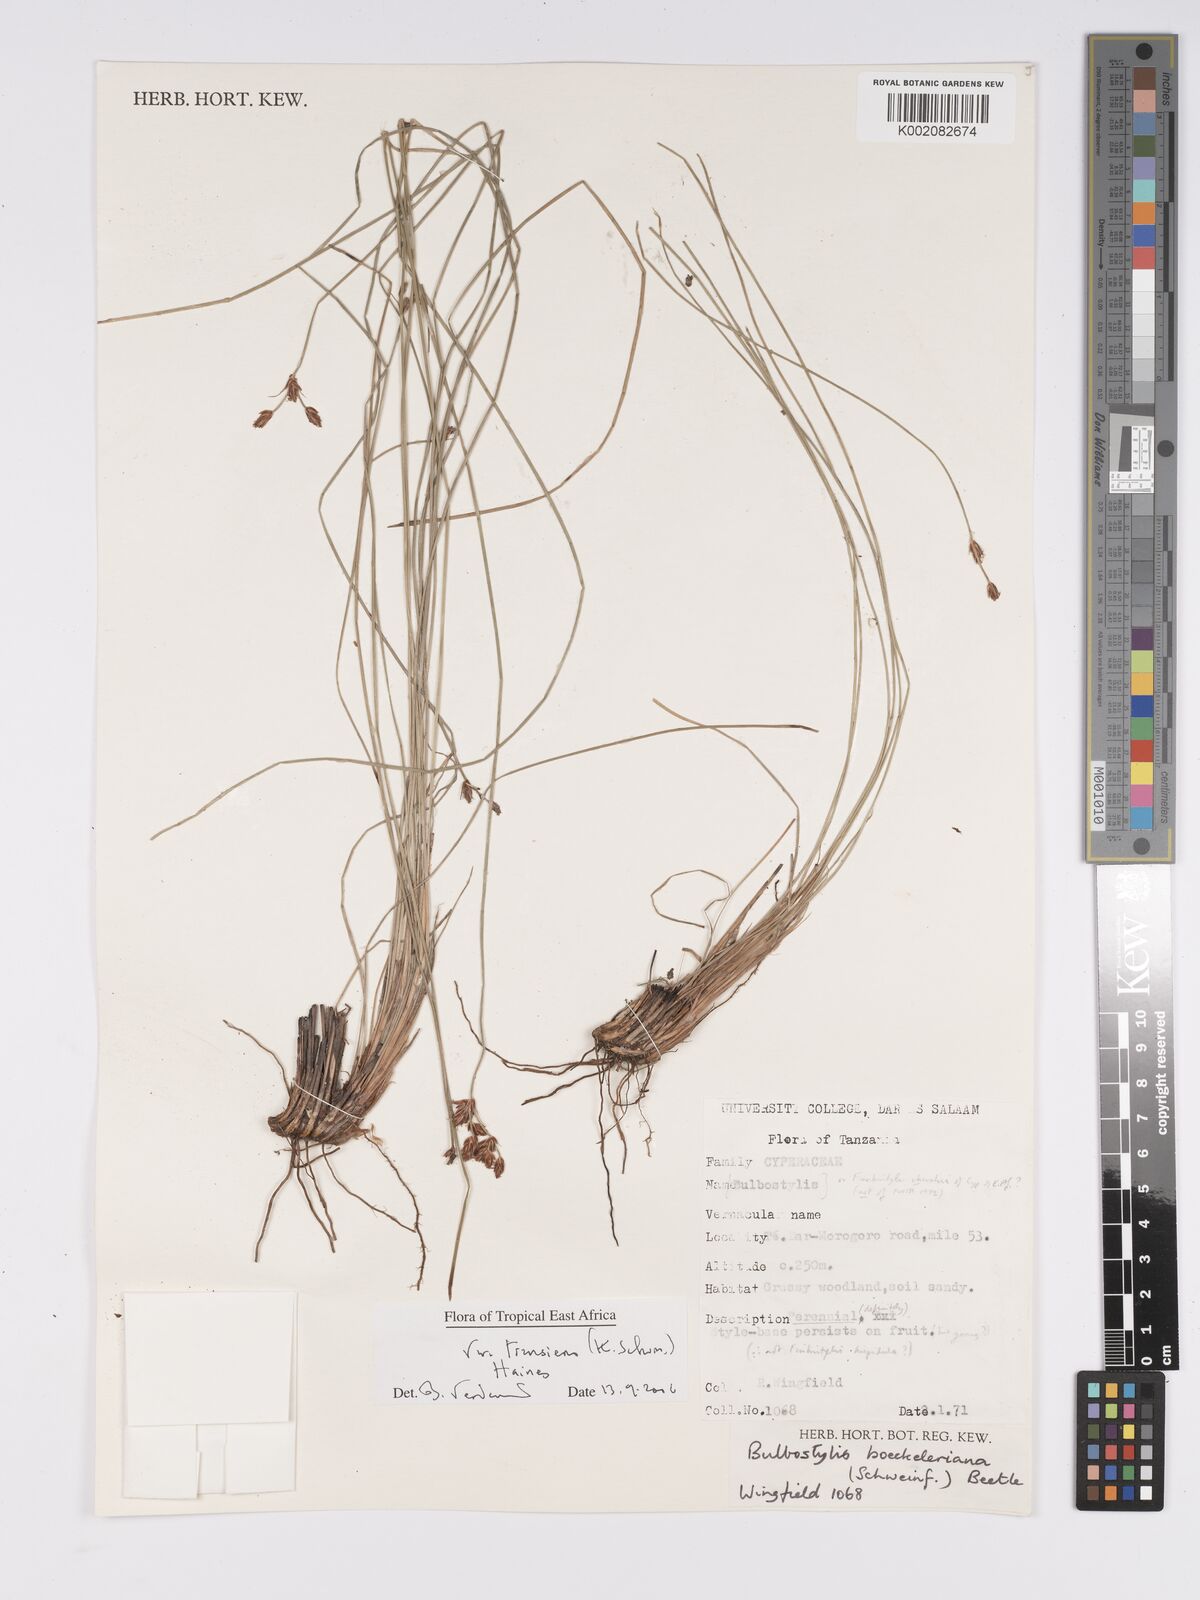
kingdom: Plantae
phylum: Tracheophyta
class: Liliopsida
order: Poales
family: Cyperaceae
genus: Bulbostylis
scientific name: Bulbostylis boeckeleriana
